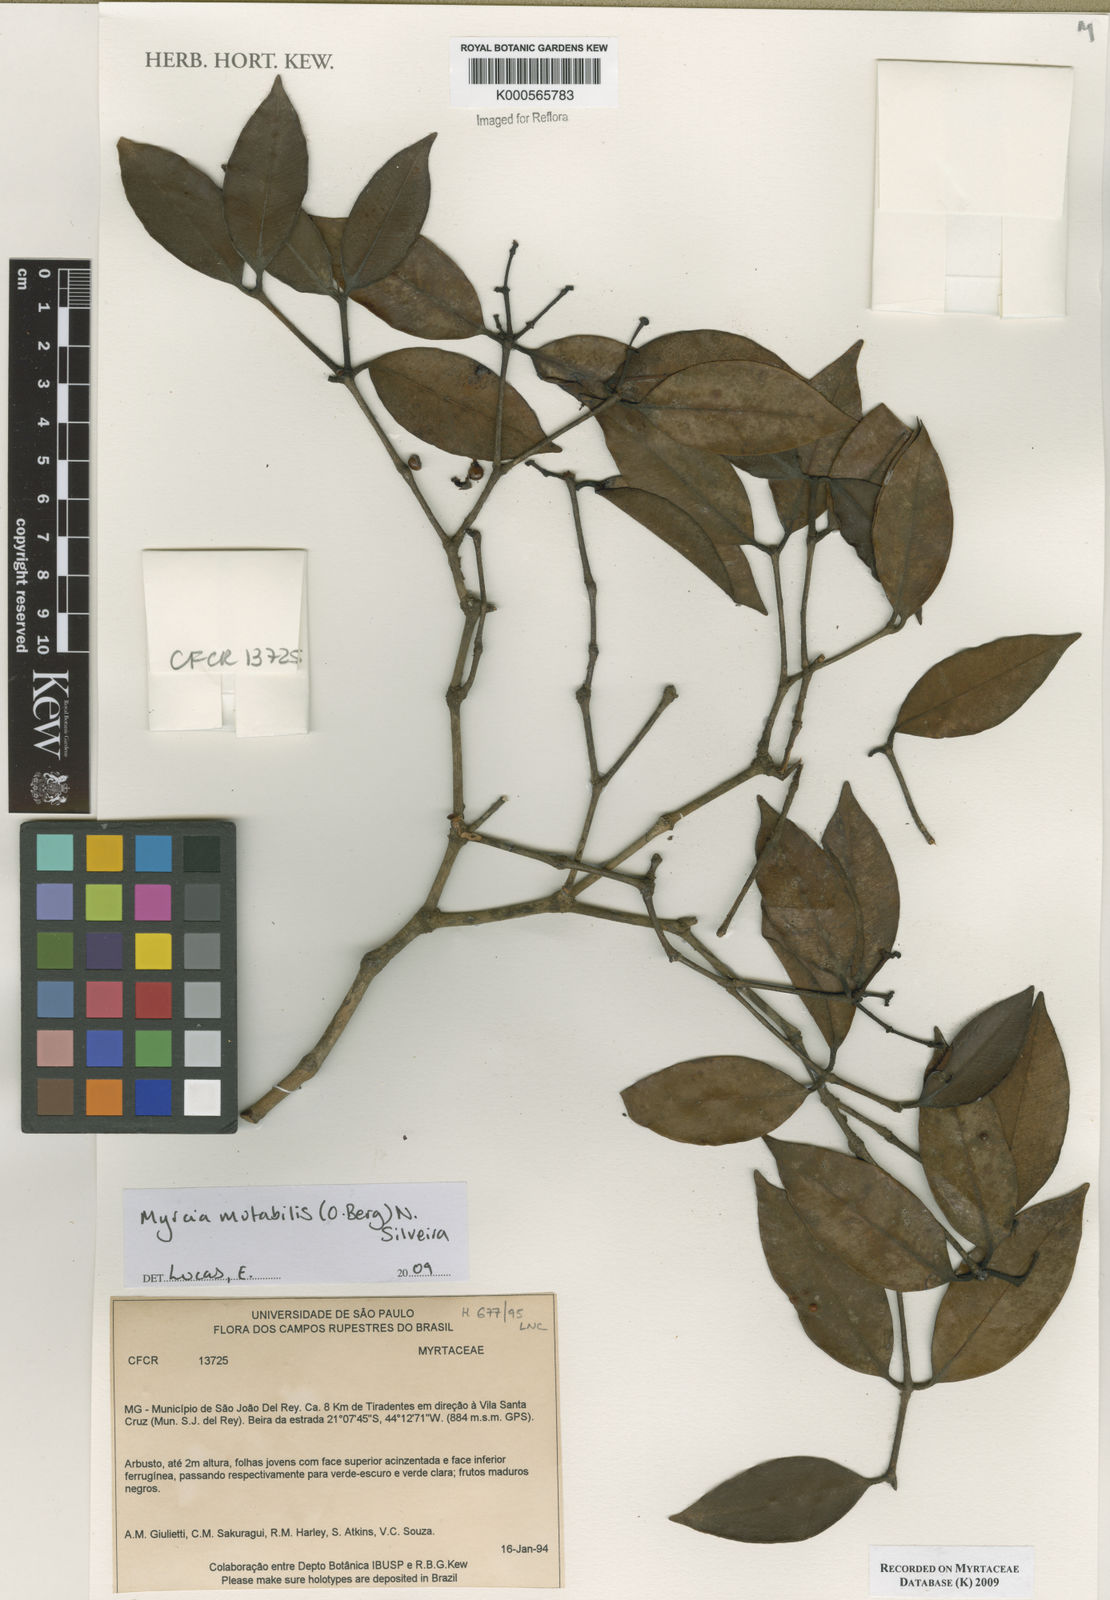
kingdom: Plantae
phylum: Tracheophyta
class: Magnoliopsida
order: Myrtales
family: Myrtaceae
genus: Myrcia
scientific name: Myrcia mutabilis
